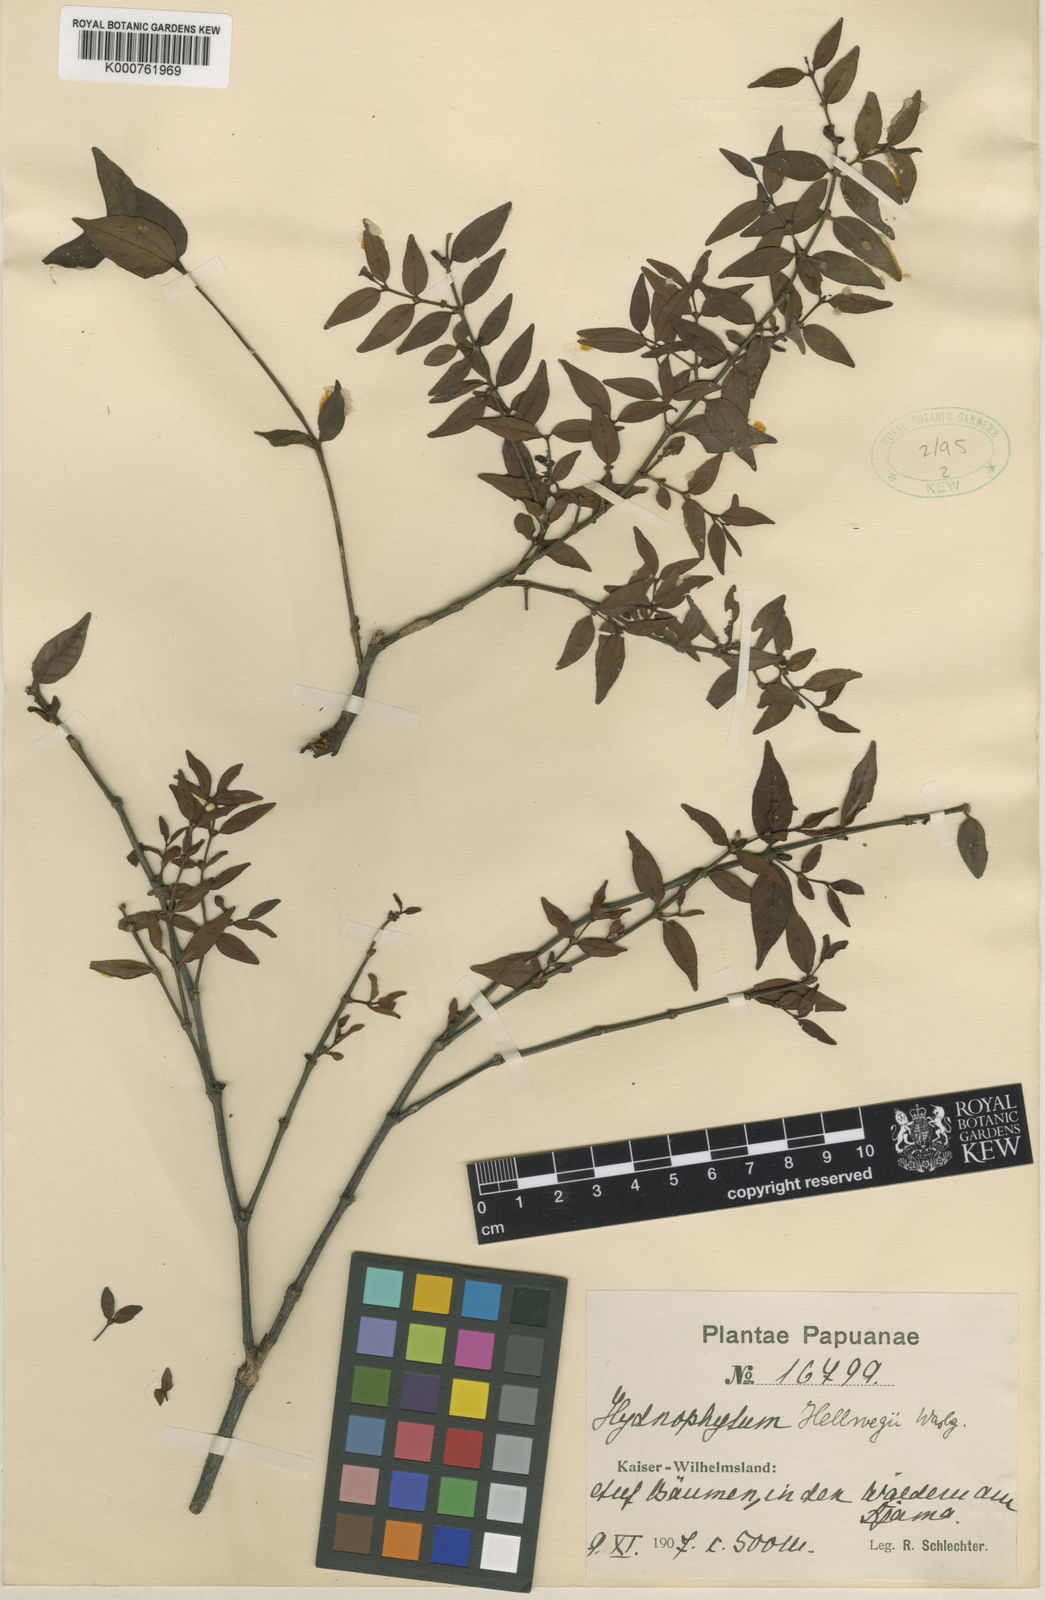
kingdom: Plantae
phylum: Tracheophyta
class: Magnoliopsida
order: Gentianales
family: Rubiaceae
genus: Hydnophytum
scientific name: Hydnophytum hellwigii
